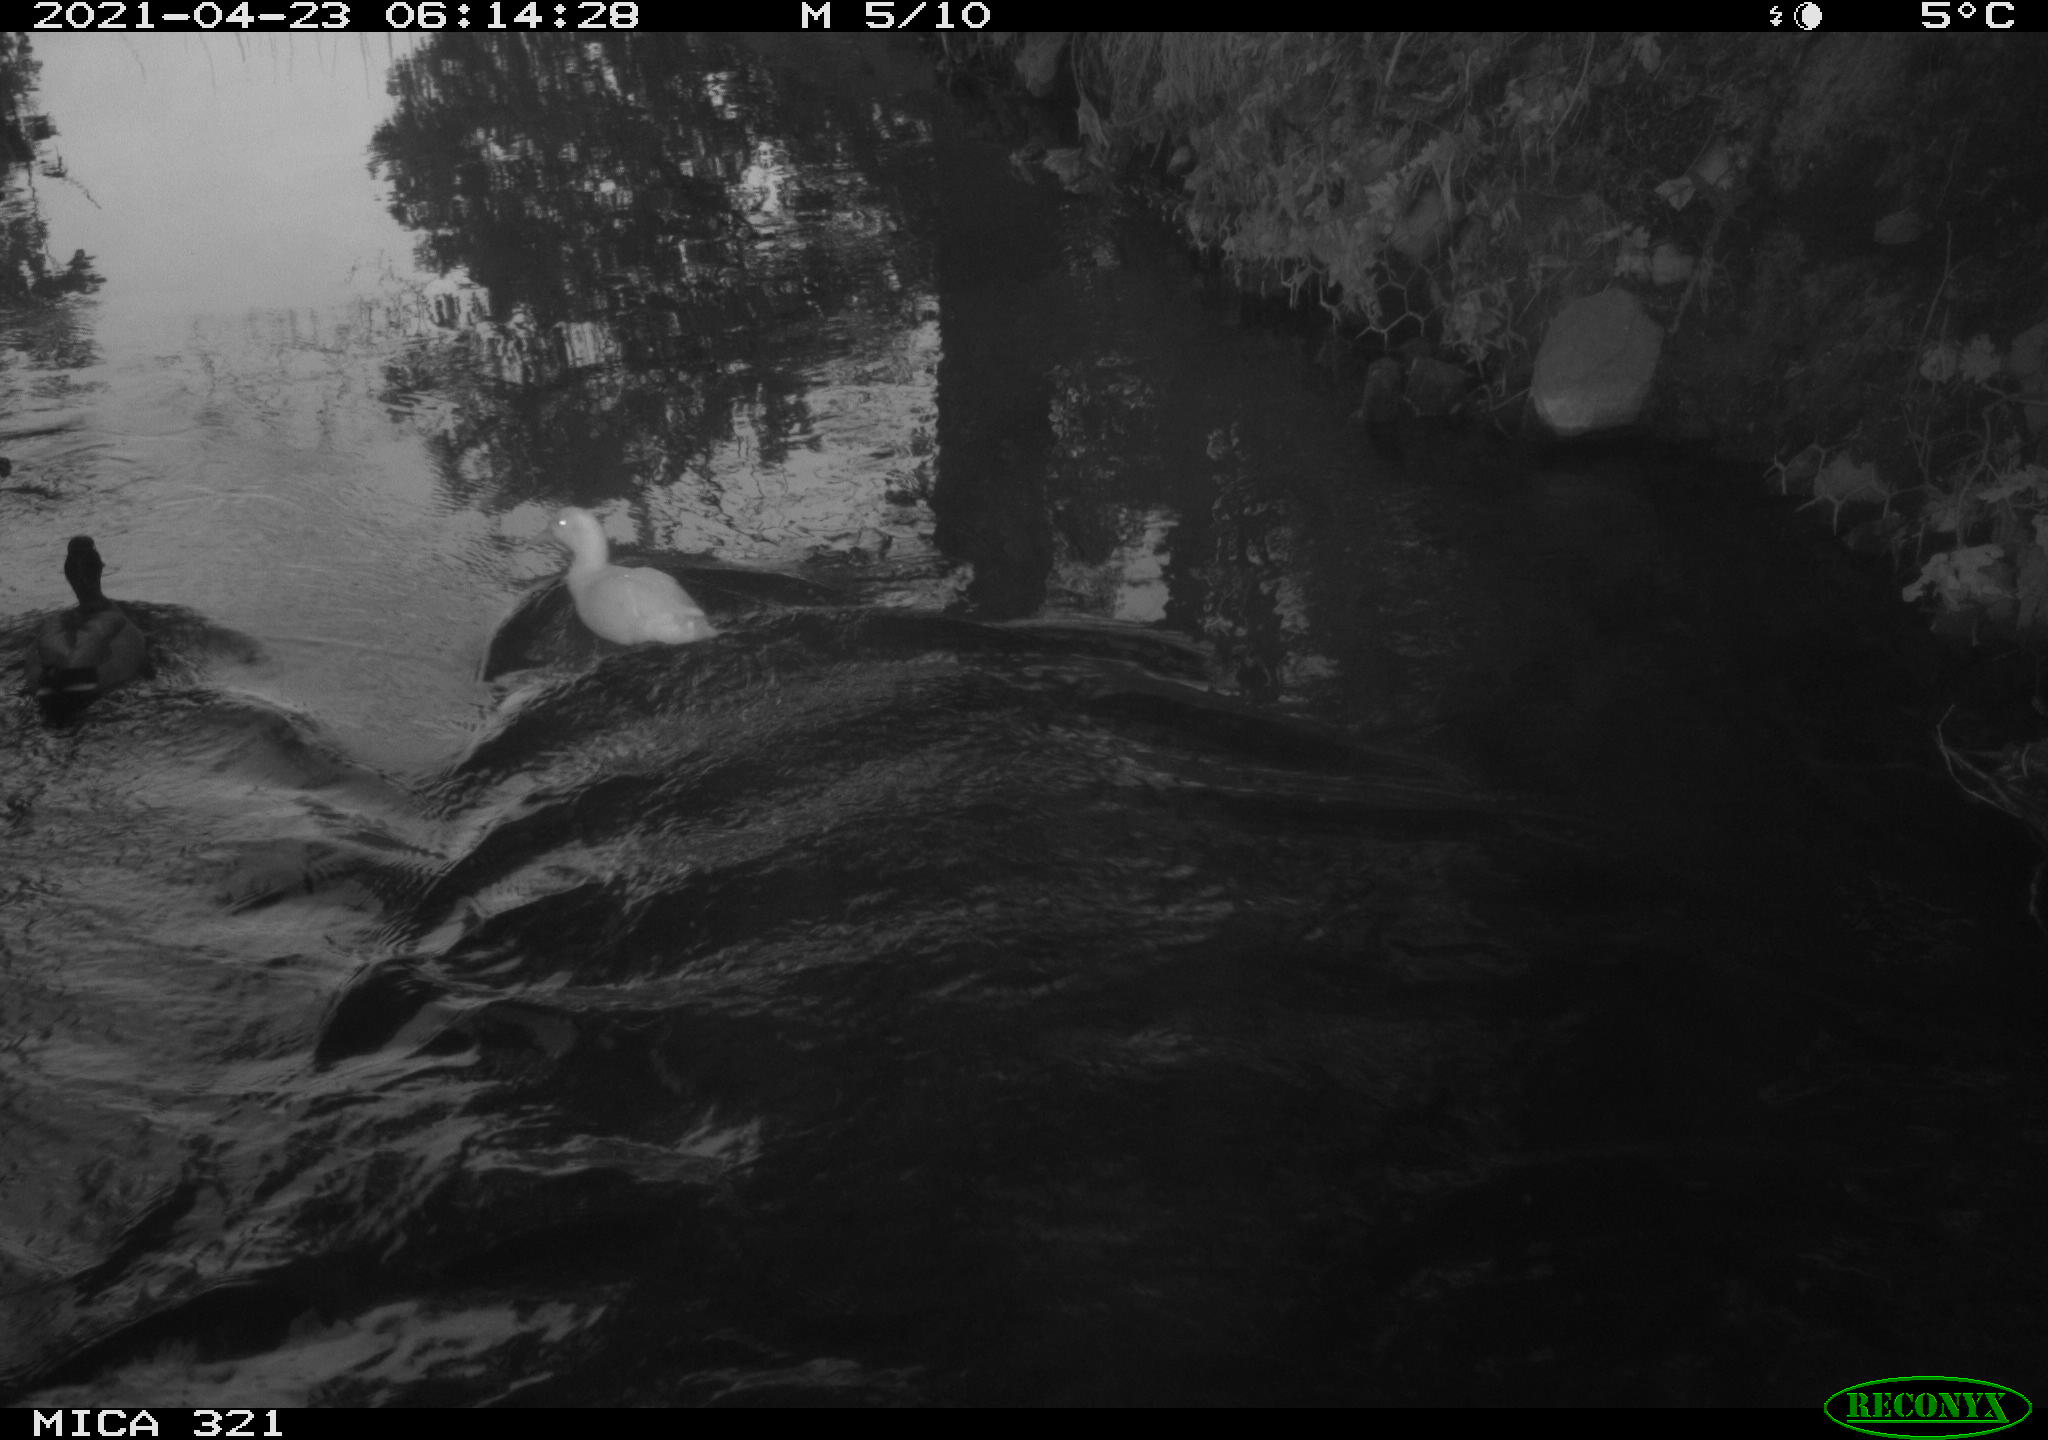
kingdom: Animalia
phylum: Chordata
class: Aves
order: Pelecaniformes
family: Ardeidae
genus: Ardea
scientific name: Ardea
